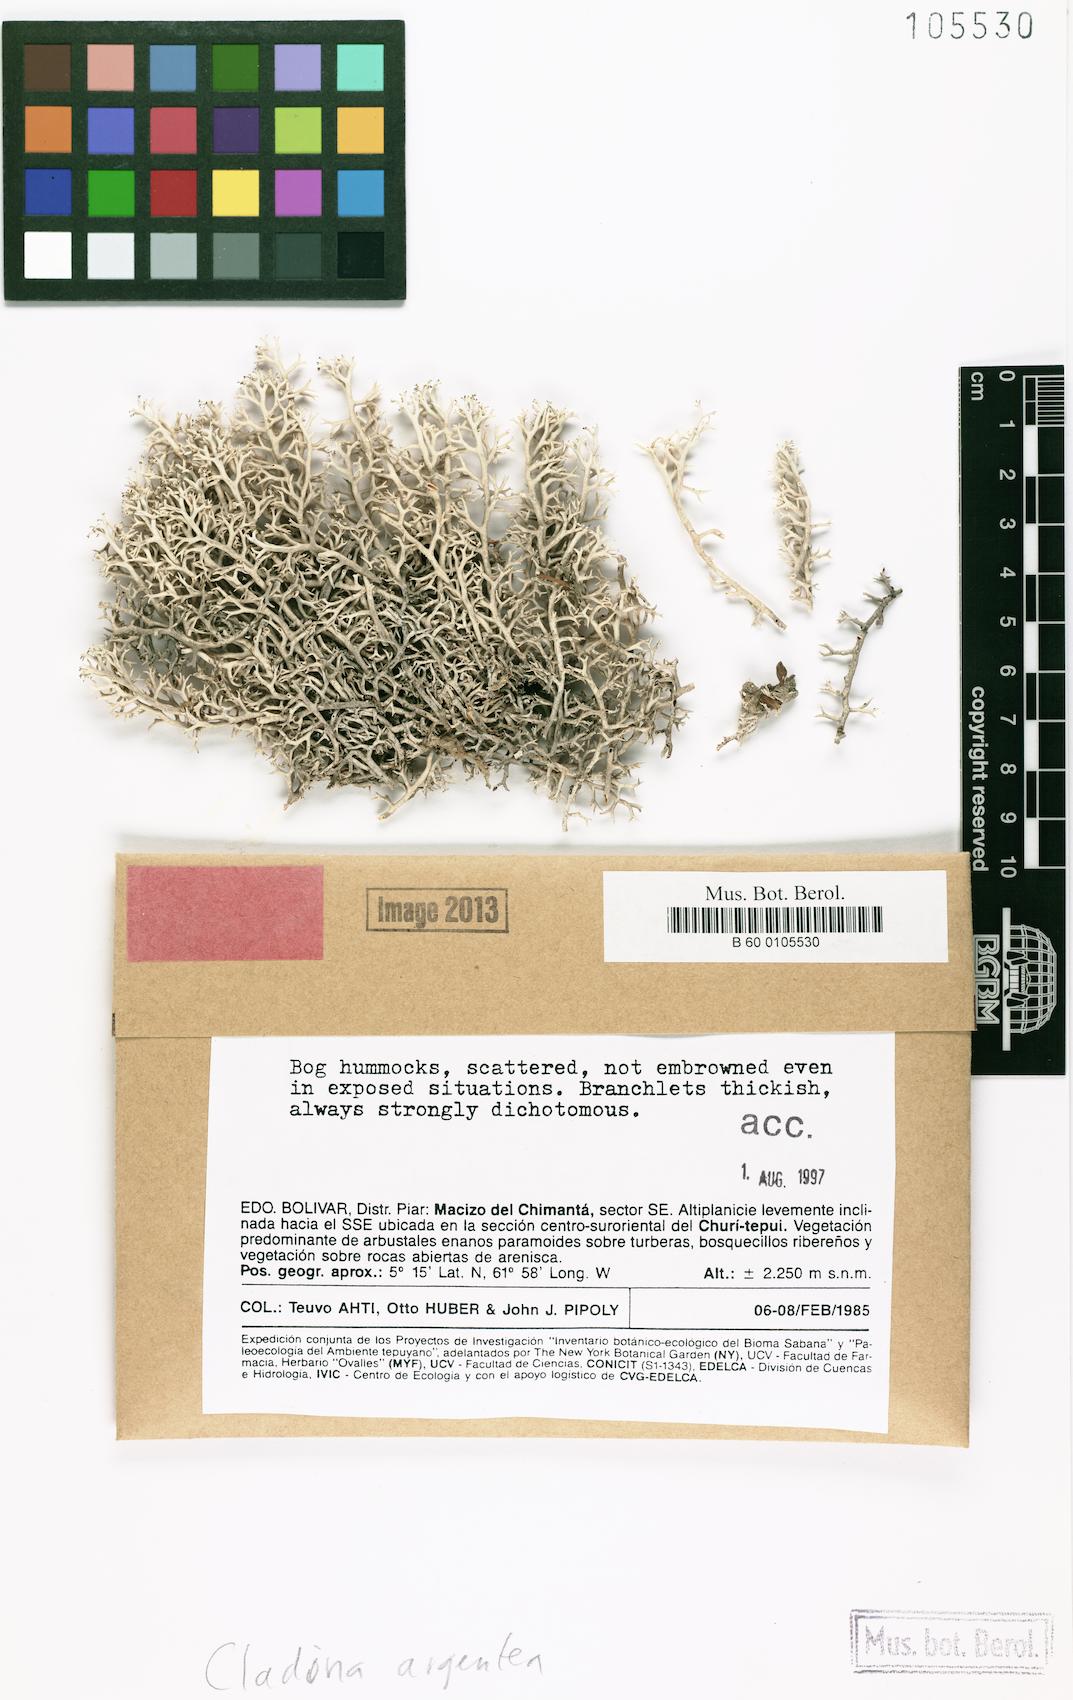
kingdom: Fungi
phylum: Ascomycota
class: Lecanoromycetes
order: Lecanorales
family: Cladoniaceae
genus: Cladonia
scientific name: Cladonia argentea
